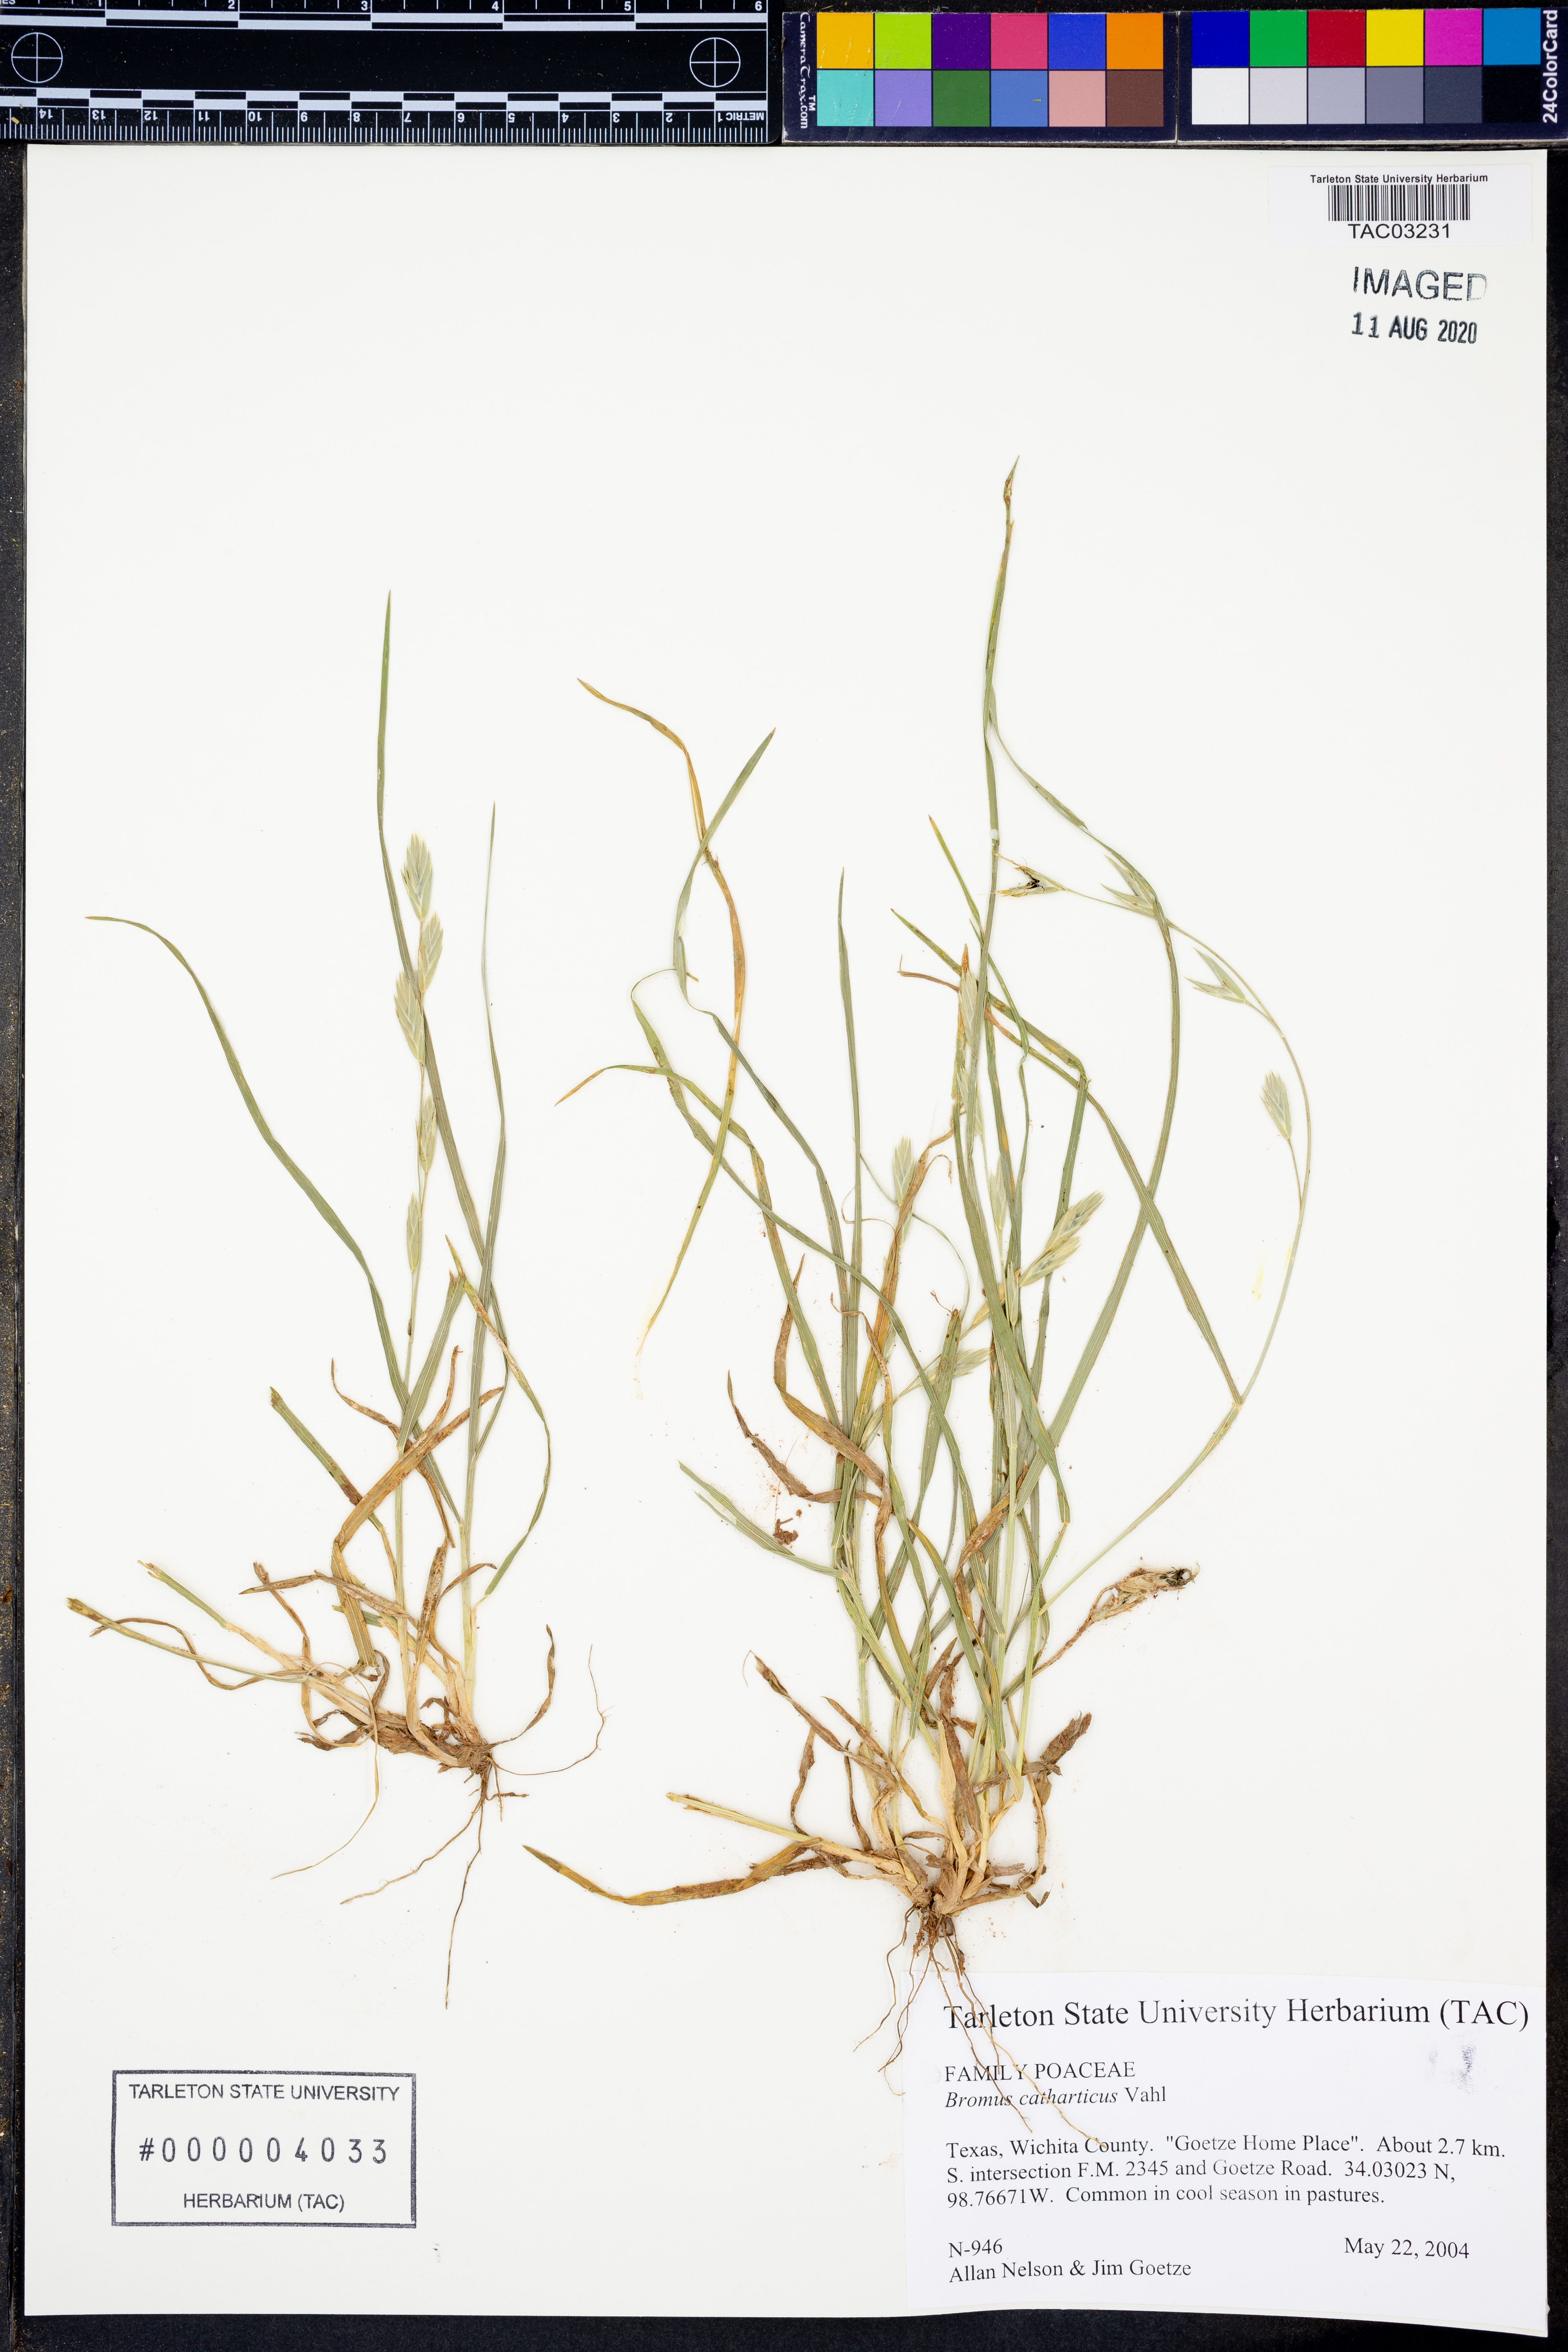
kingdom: Plantae
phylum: Tracheophyta
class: Liliopsida
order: Poales
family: Poaceae
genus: Bromus
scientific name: Bromus catharticus
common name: Rescuegrass
